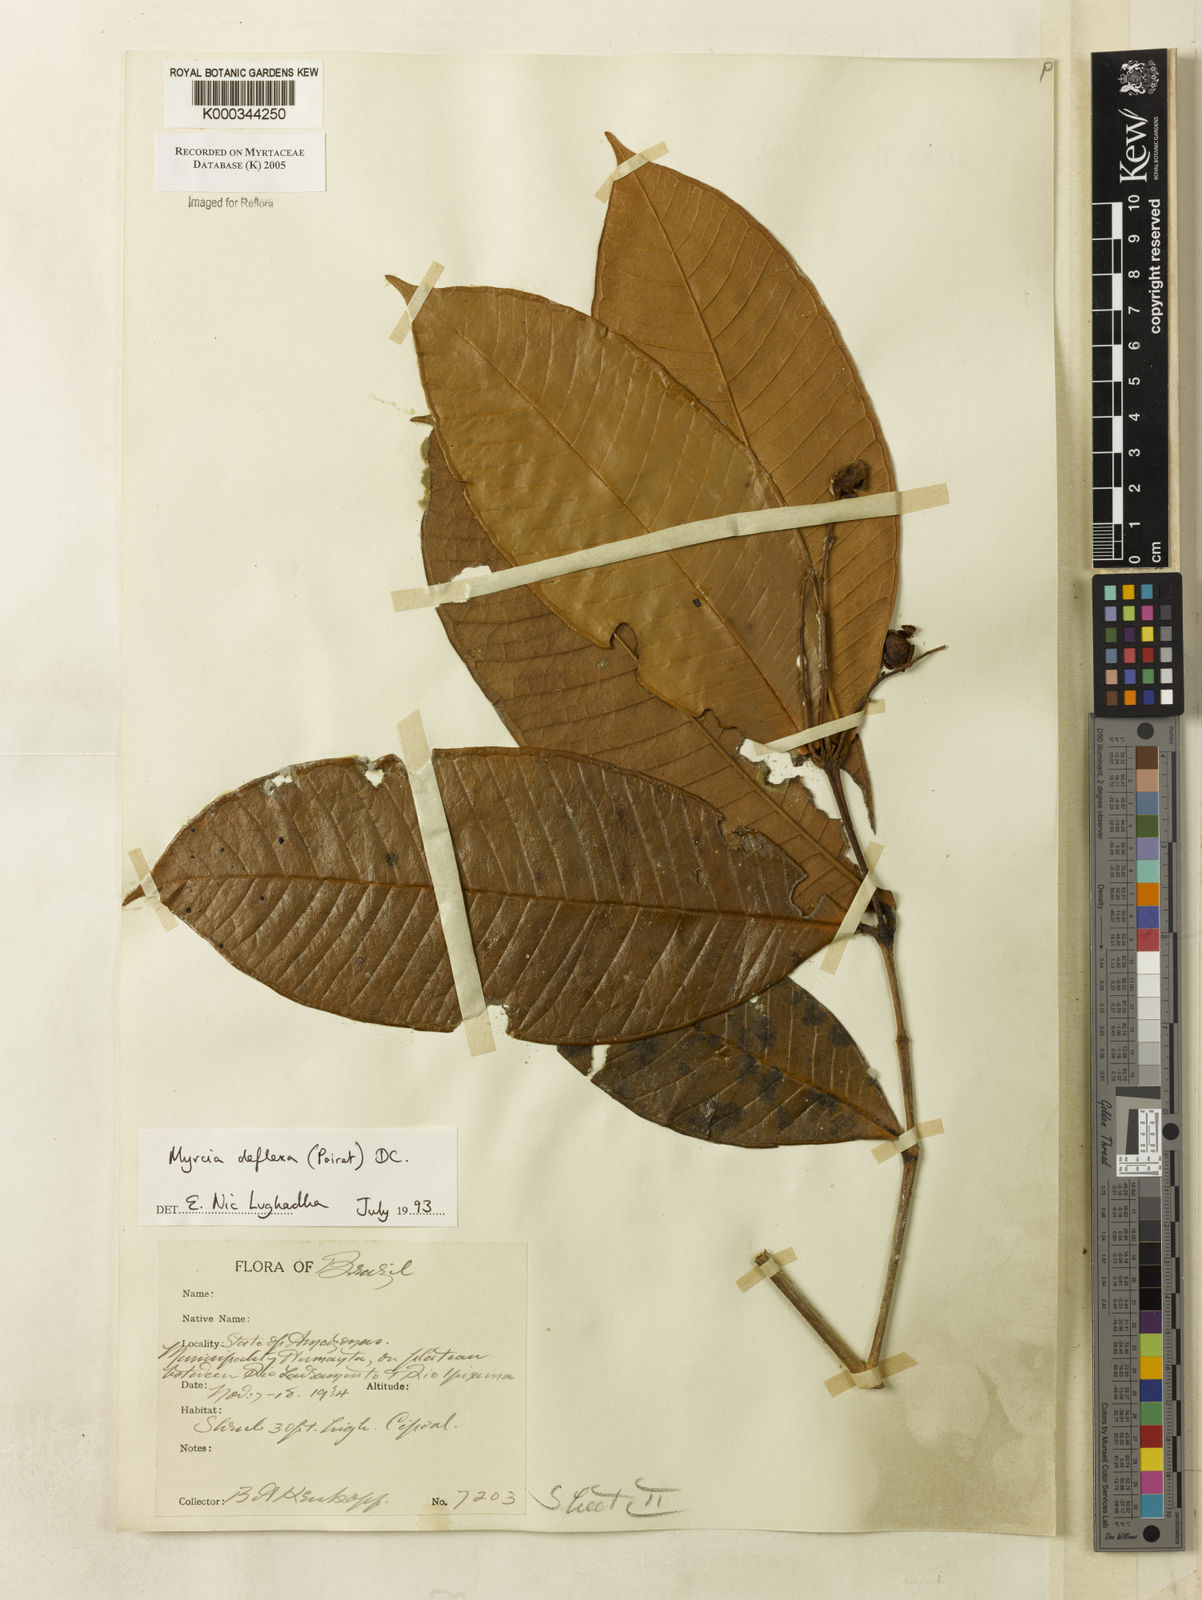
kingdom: Plantae
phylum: Tracheophyta
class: Magnoliopsida
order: Myrtales
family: Myrtaceae
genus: Myrcia
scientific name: Myrcia deflexa
